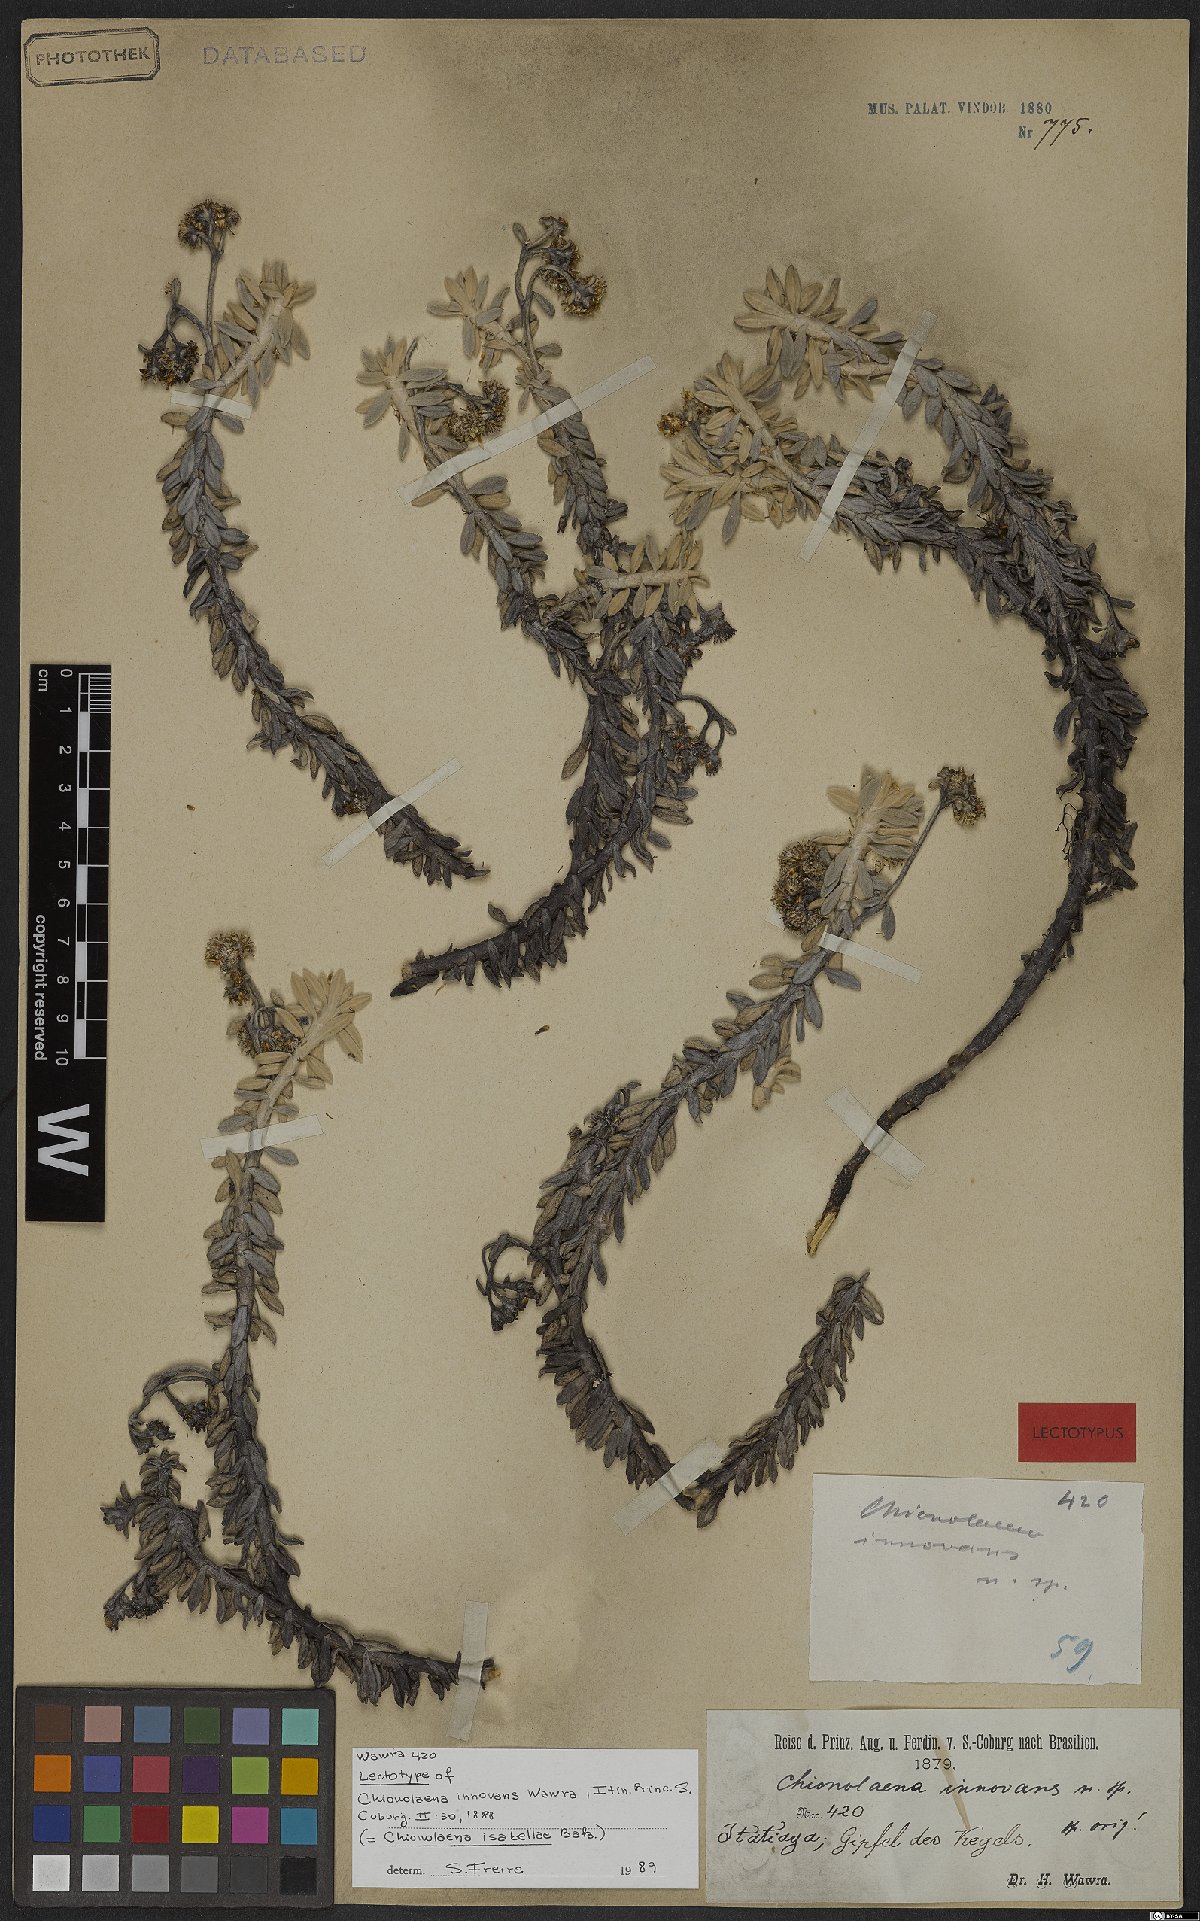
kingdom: Plantae
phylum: Tracheophyta
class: Magnoliopsida
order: Asterales
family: Asteraceae
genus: Chionolaena
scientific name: Chionolaena isabellae
